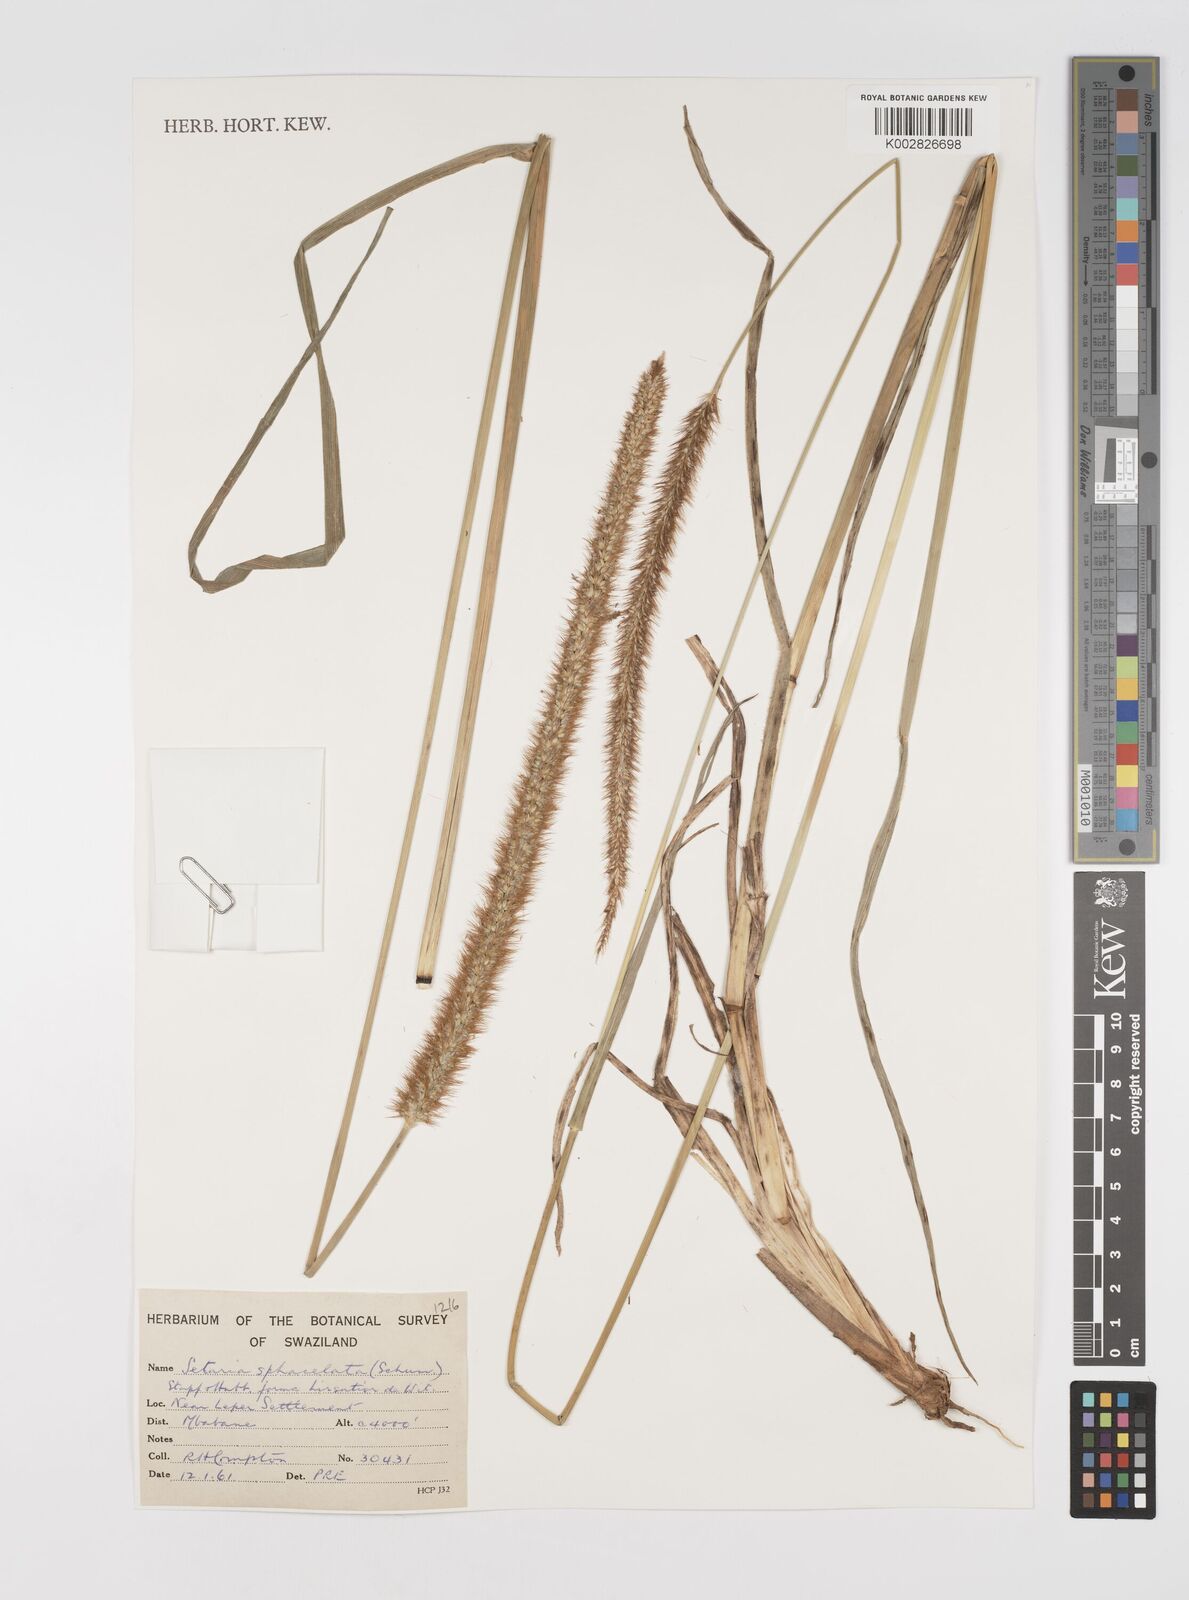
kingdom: Plantae
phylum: Tracheophyta
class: Liliopsida
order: Poales
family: Poaceae
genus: Setaria
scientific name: Setaria sphacelata
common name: African bristlegrass
